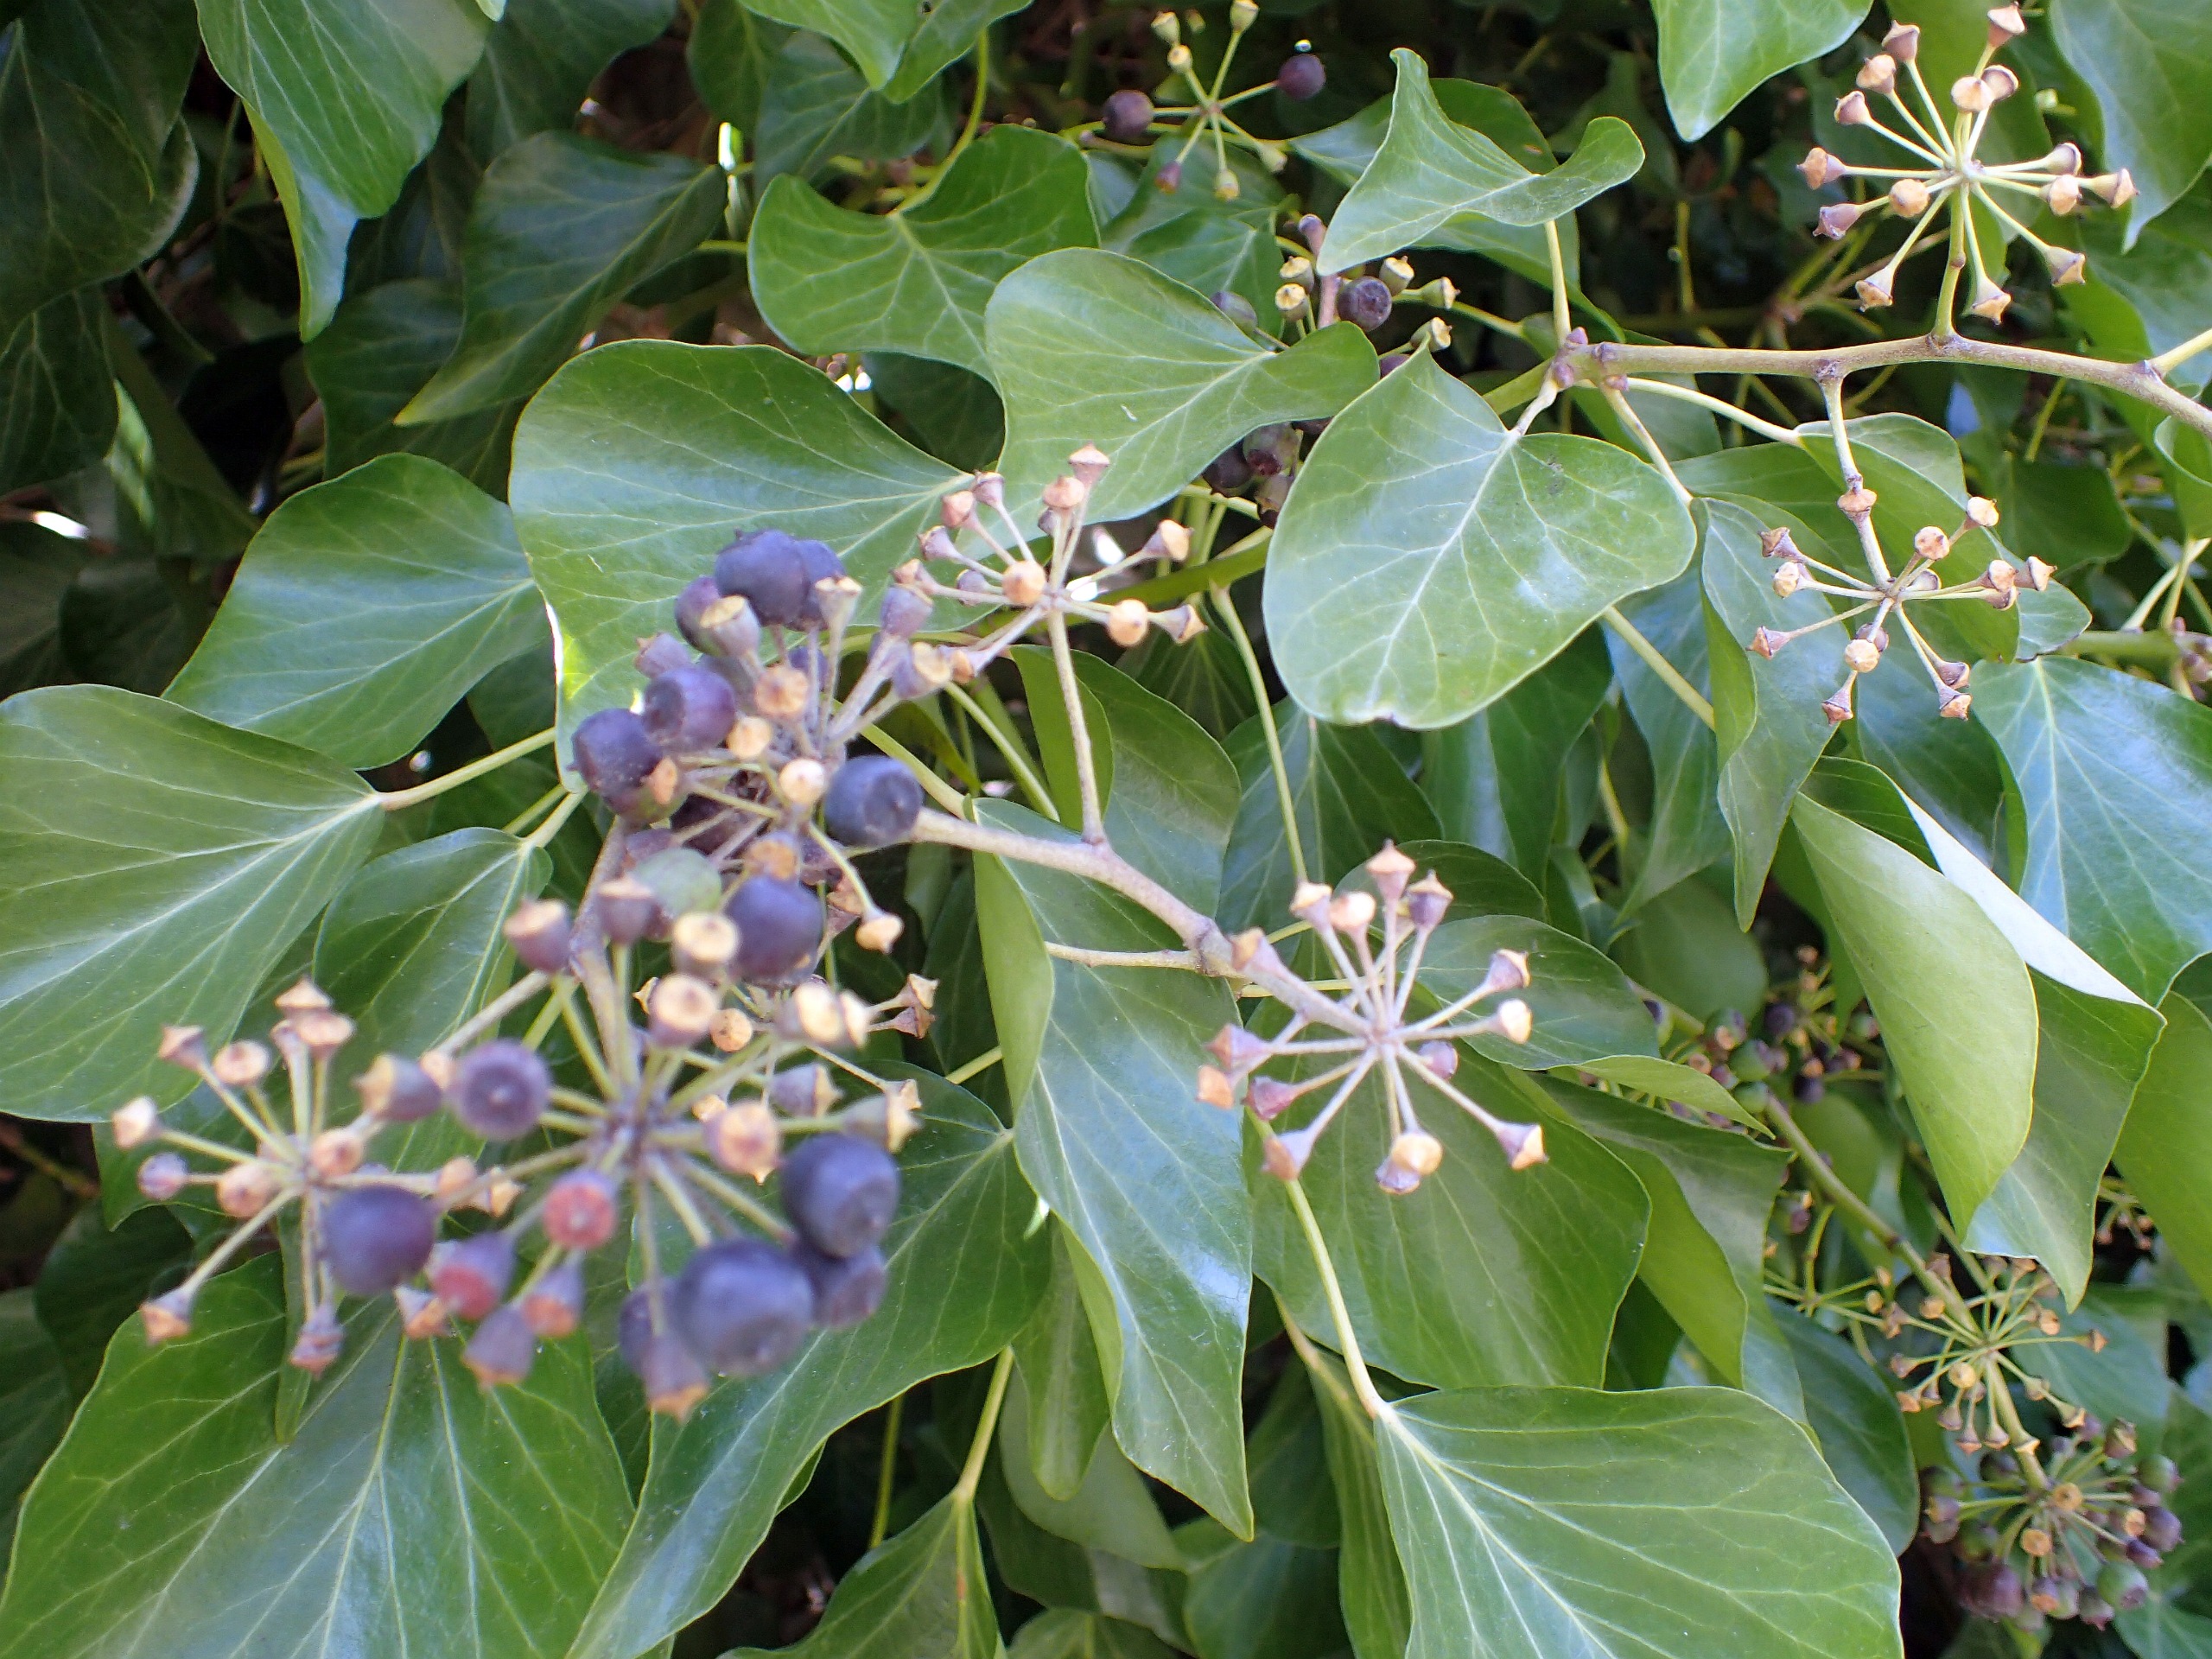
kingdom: Plantae
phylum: Tracheophyta
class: Magnoliopsida
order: Apiales
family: Araliaceae
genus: Hedera
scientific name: Hedera helix
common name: Vedbend
